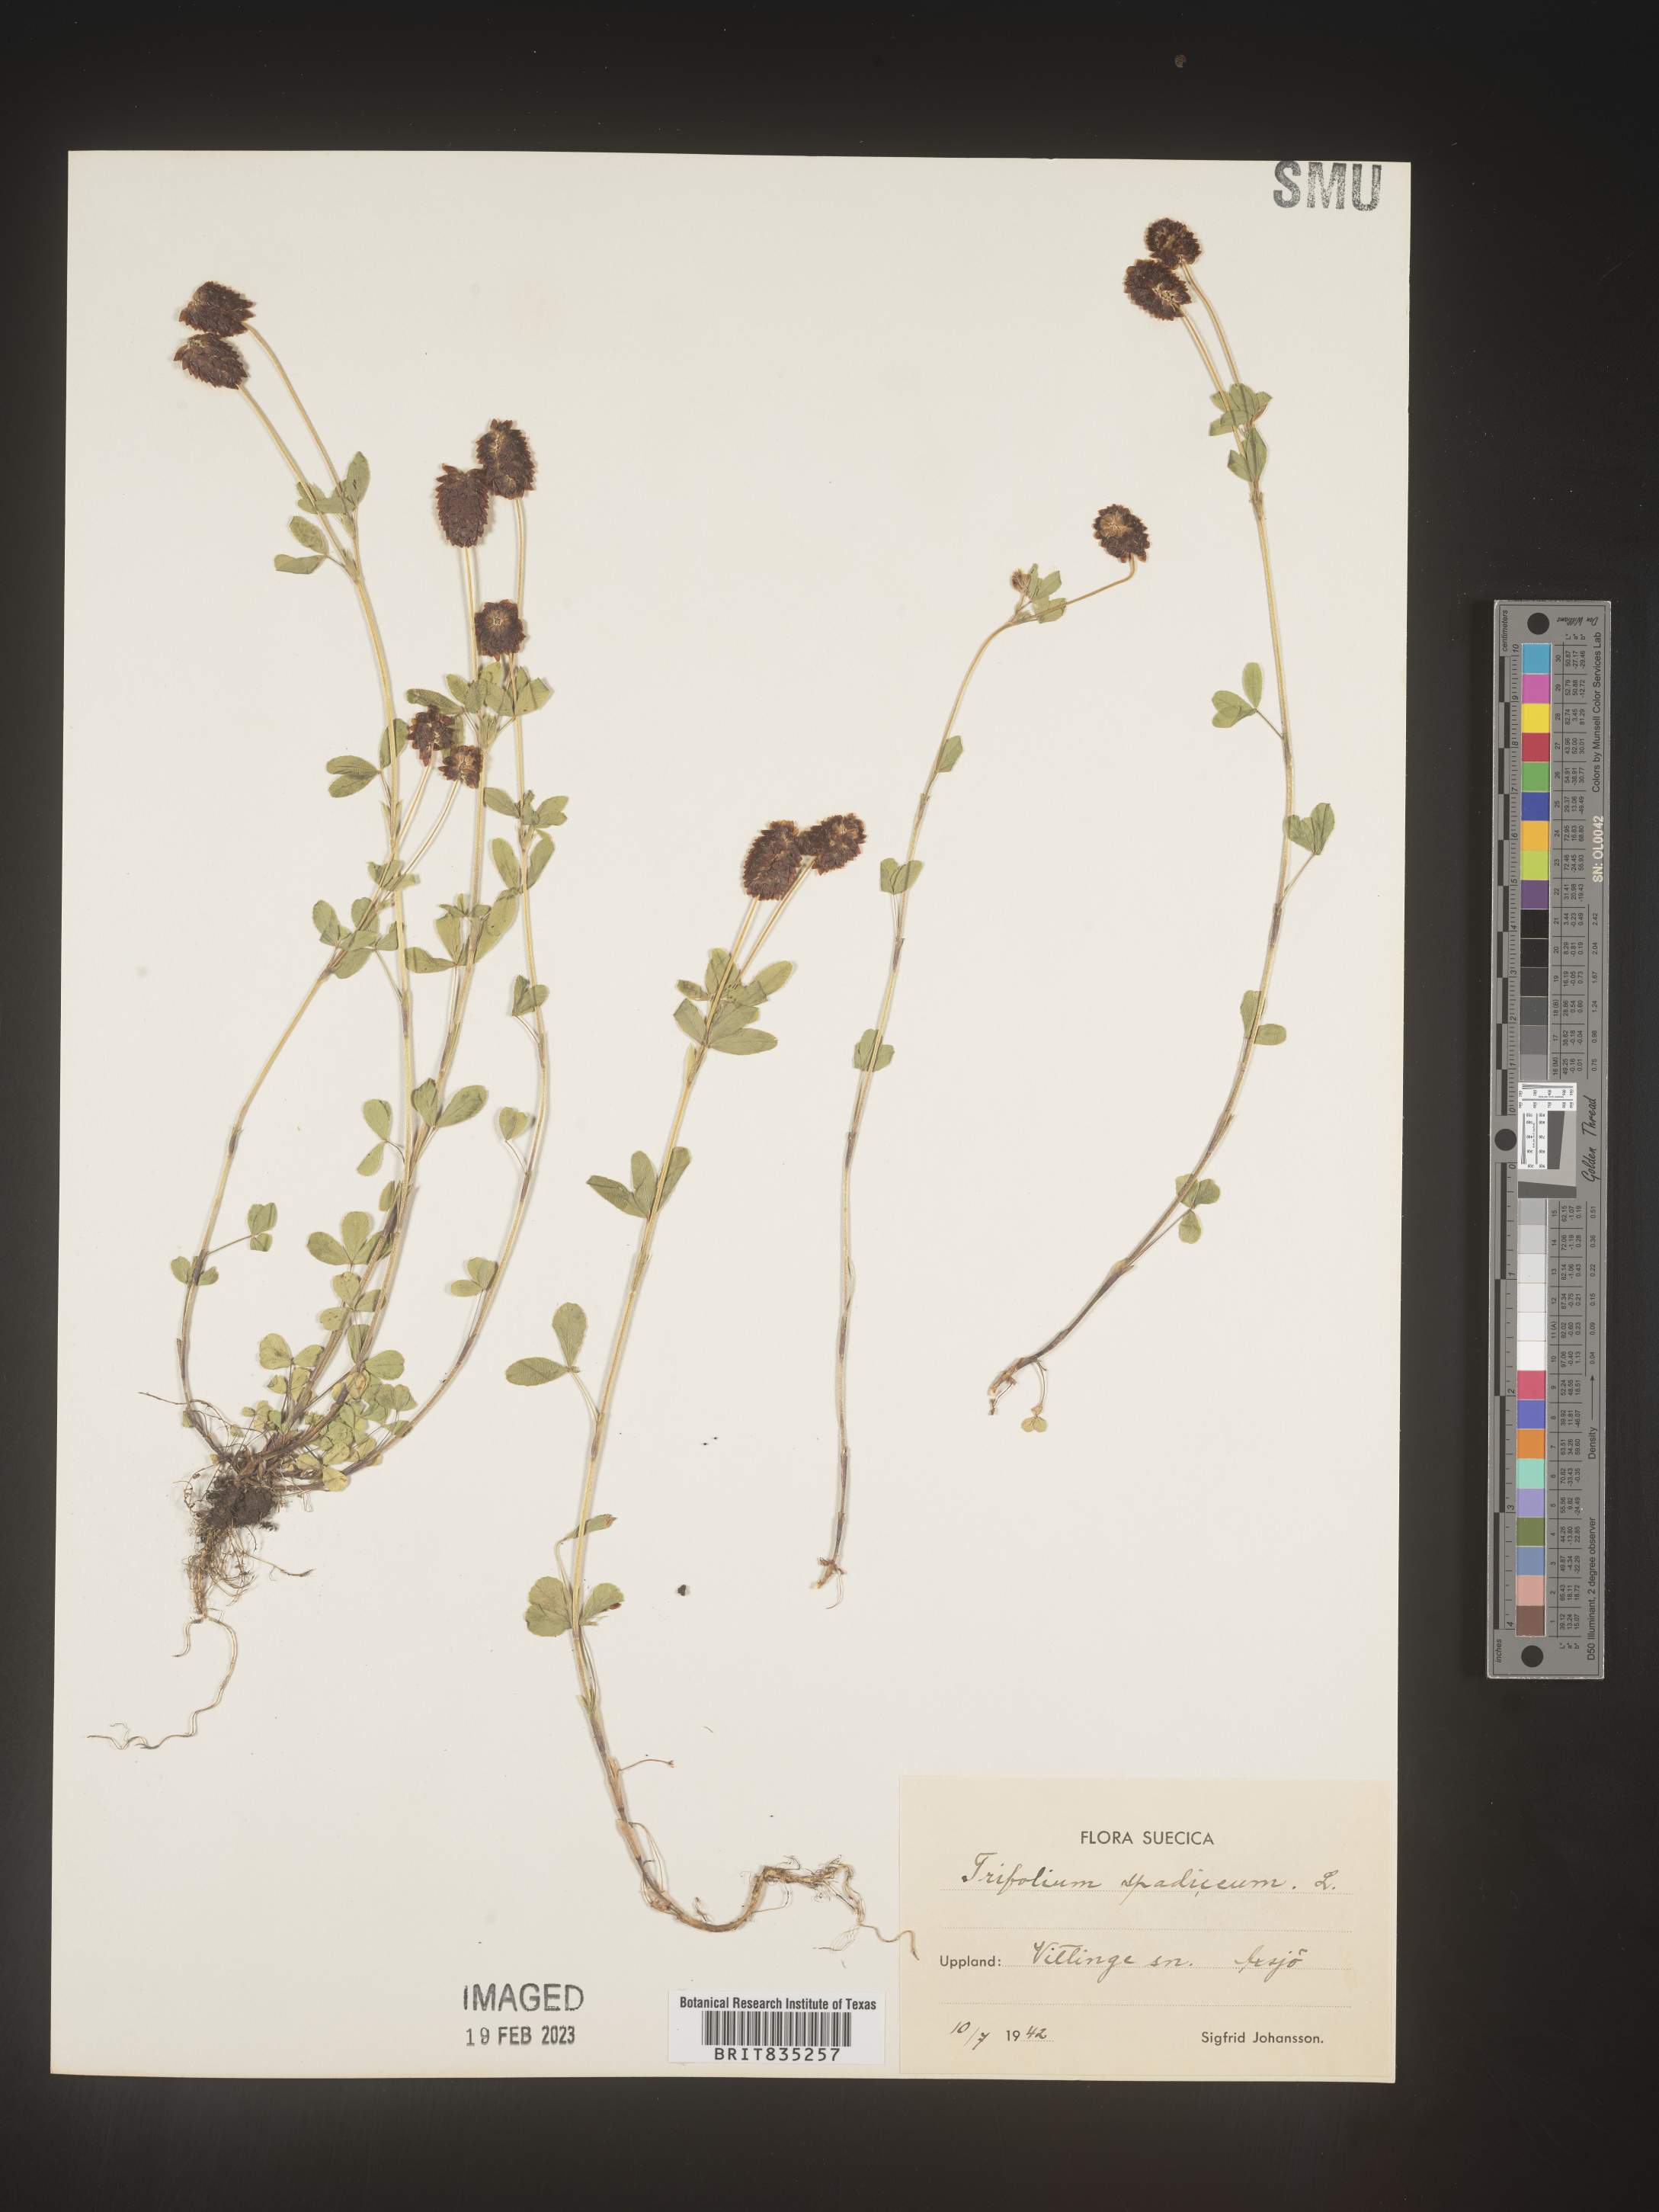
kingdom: Plantae
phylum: Tracheophyta
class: Magnoliopsida
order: Fabales
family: Fabaceae
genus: Trifolium
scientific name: Trifolium
